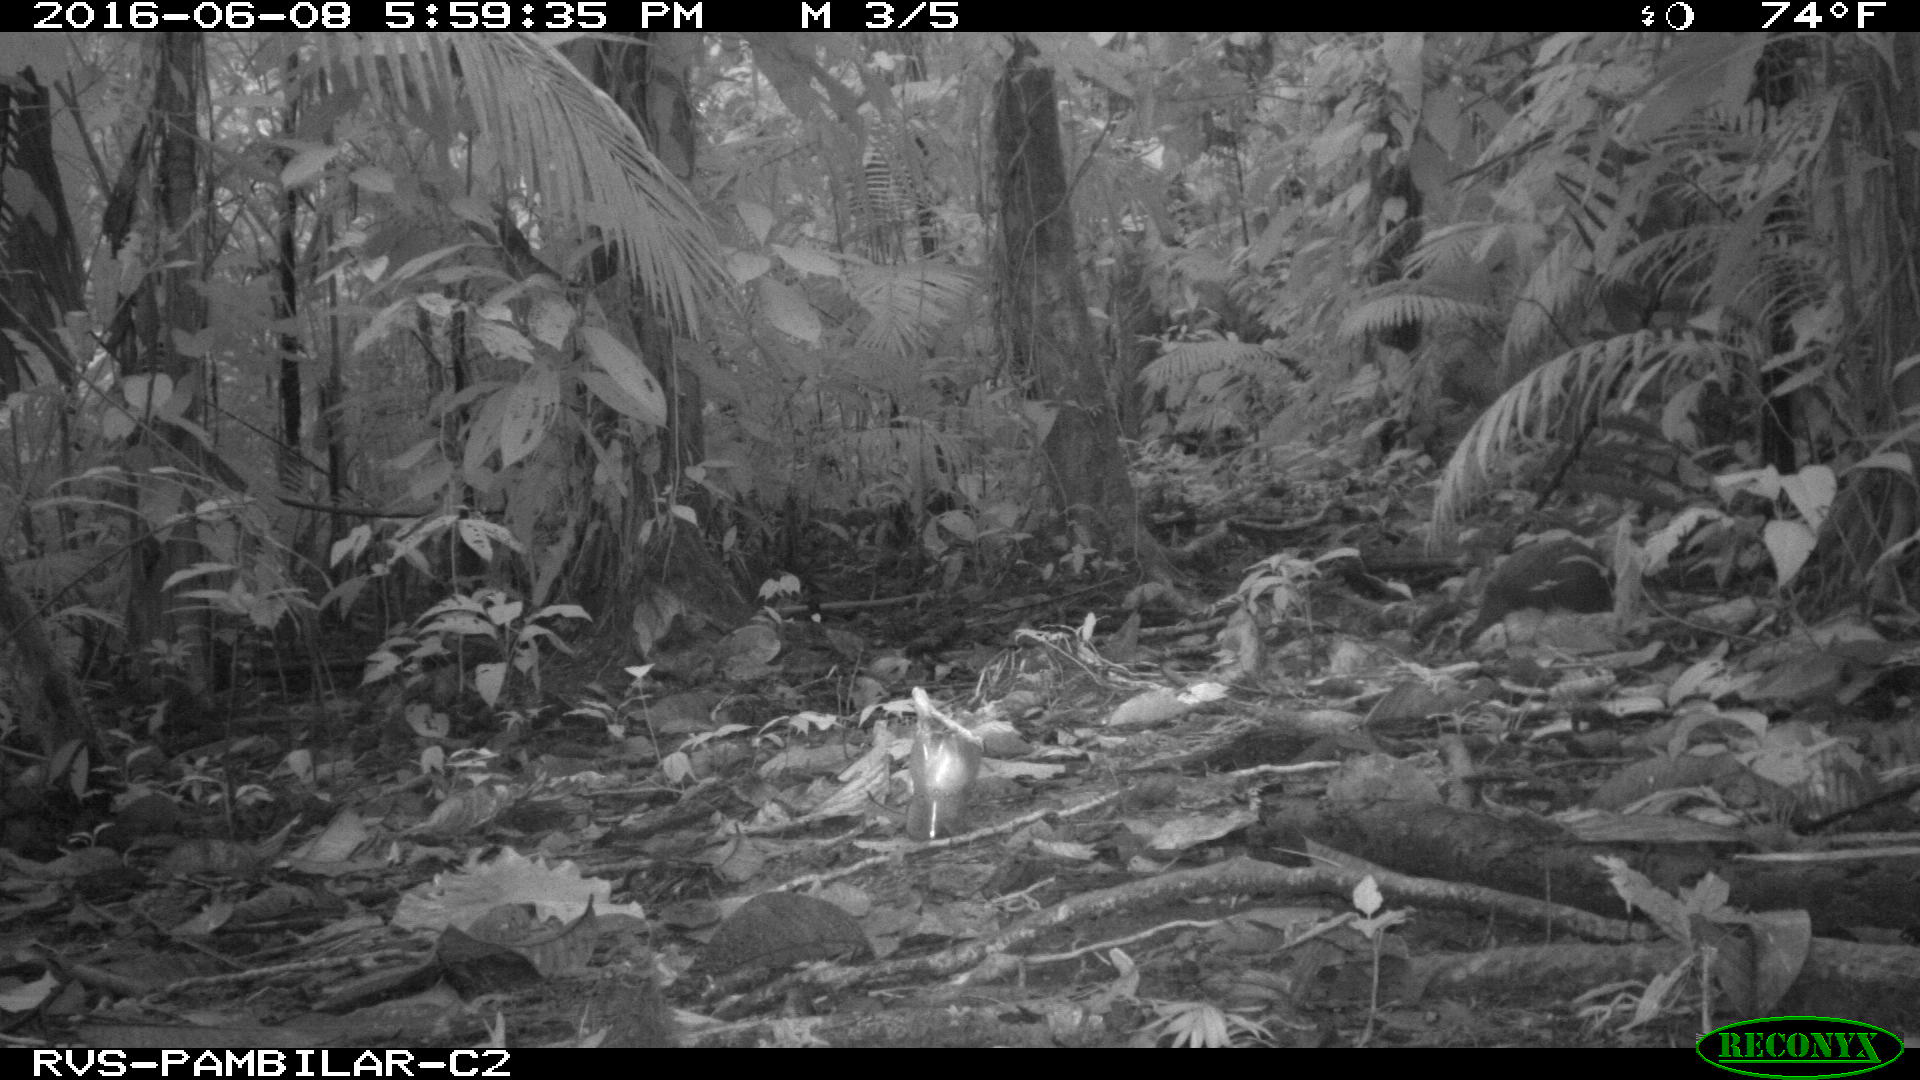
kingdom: Animalia
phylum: Chordata
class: Mammalia
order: Rodentia
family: Dasyproctidae
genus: Dasyprocta
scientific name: Dasyprocta punctata
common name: Central american agouti
